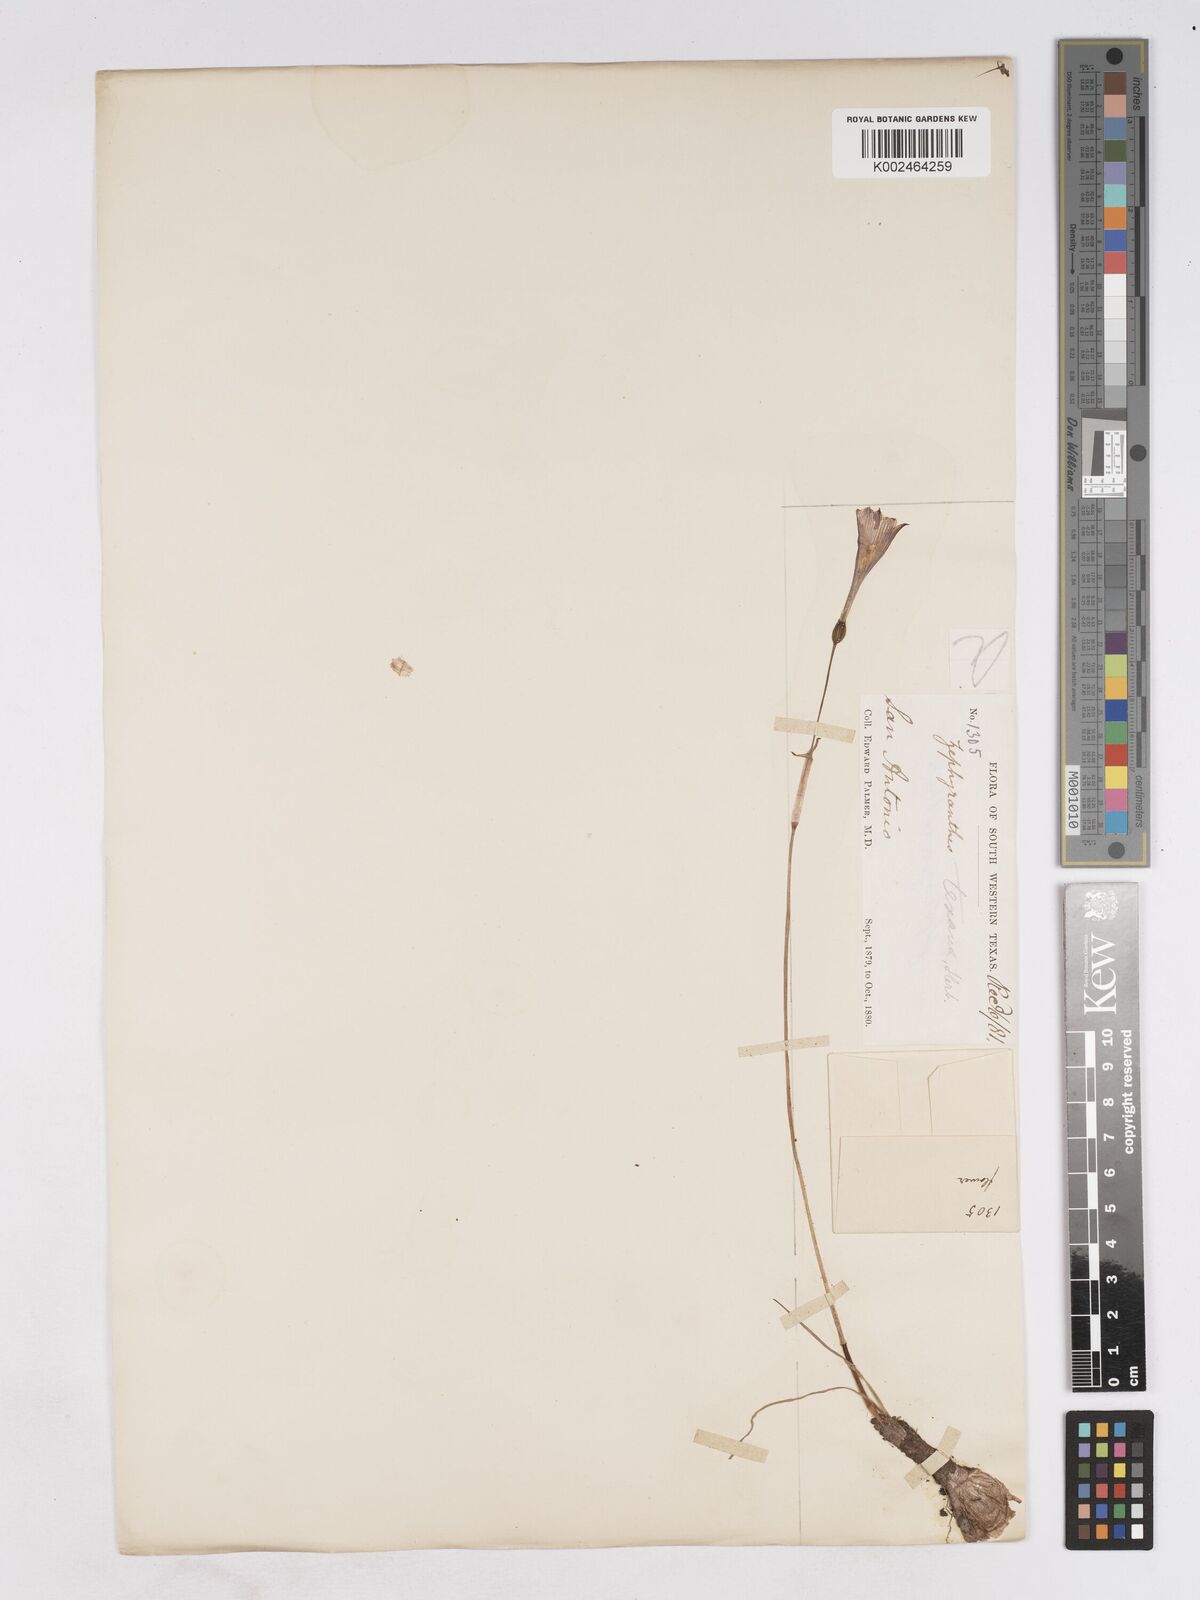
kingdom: Plantae
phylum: Tracheophyta
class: Liliopsida
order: Asparagales
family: Amaryllidaceae
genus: Zephyranthes
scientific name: Zephyranthes tubispatha
